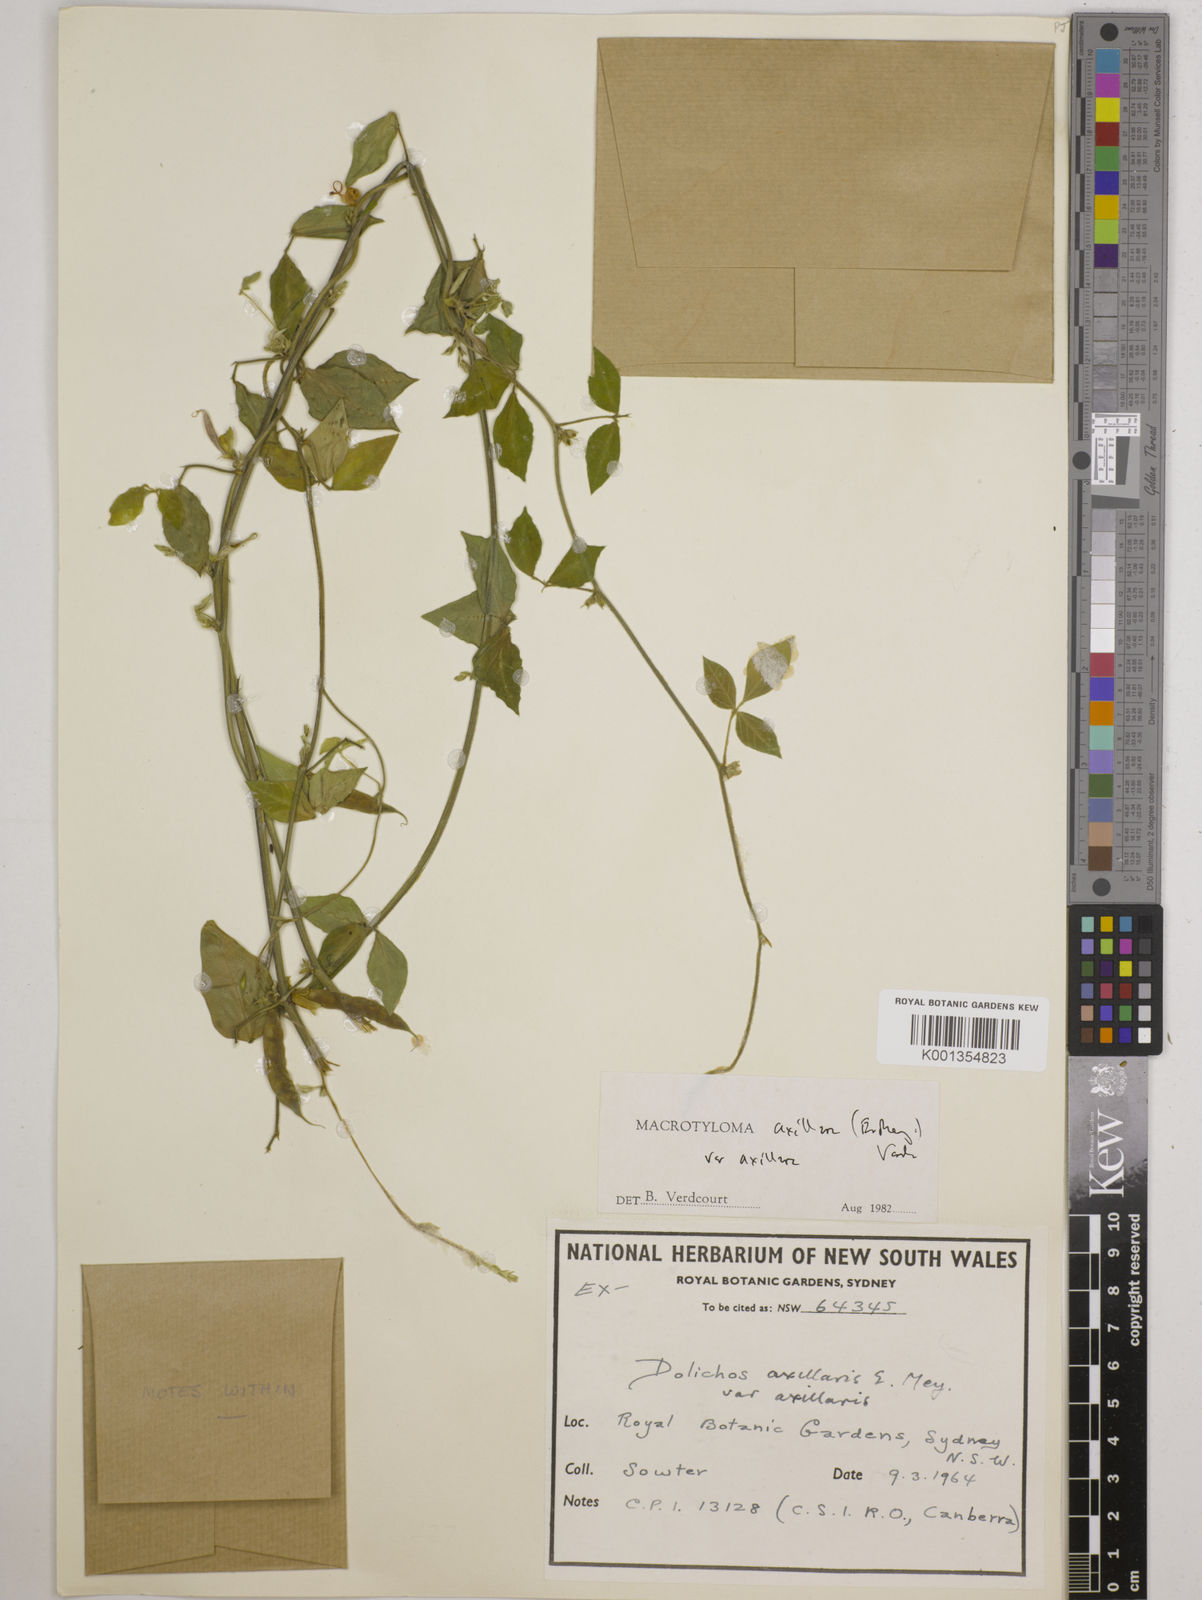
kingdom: Plantae
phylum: Tracheophyta
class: Magnoliopsida
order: Fabales
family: Fabaceae
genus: Macrotyloma
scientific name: Macrotyloma axillare
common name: Perennial horsegram
